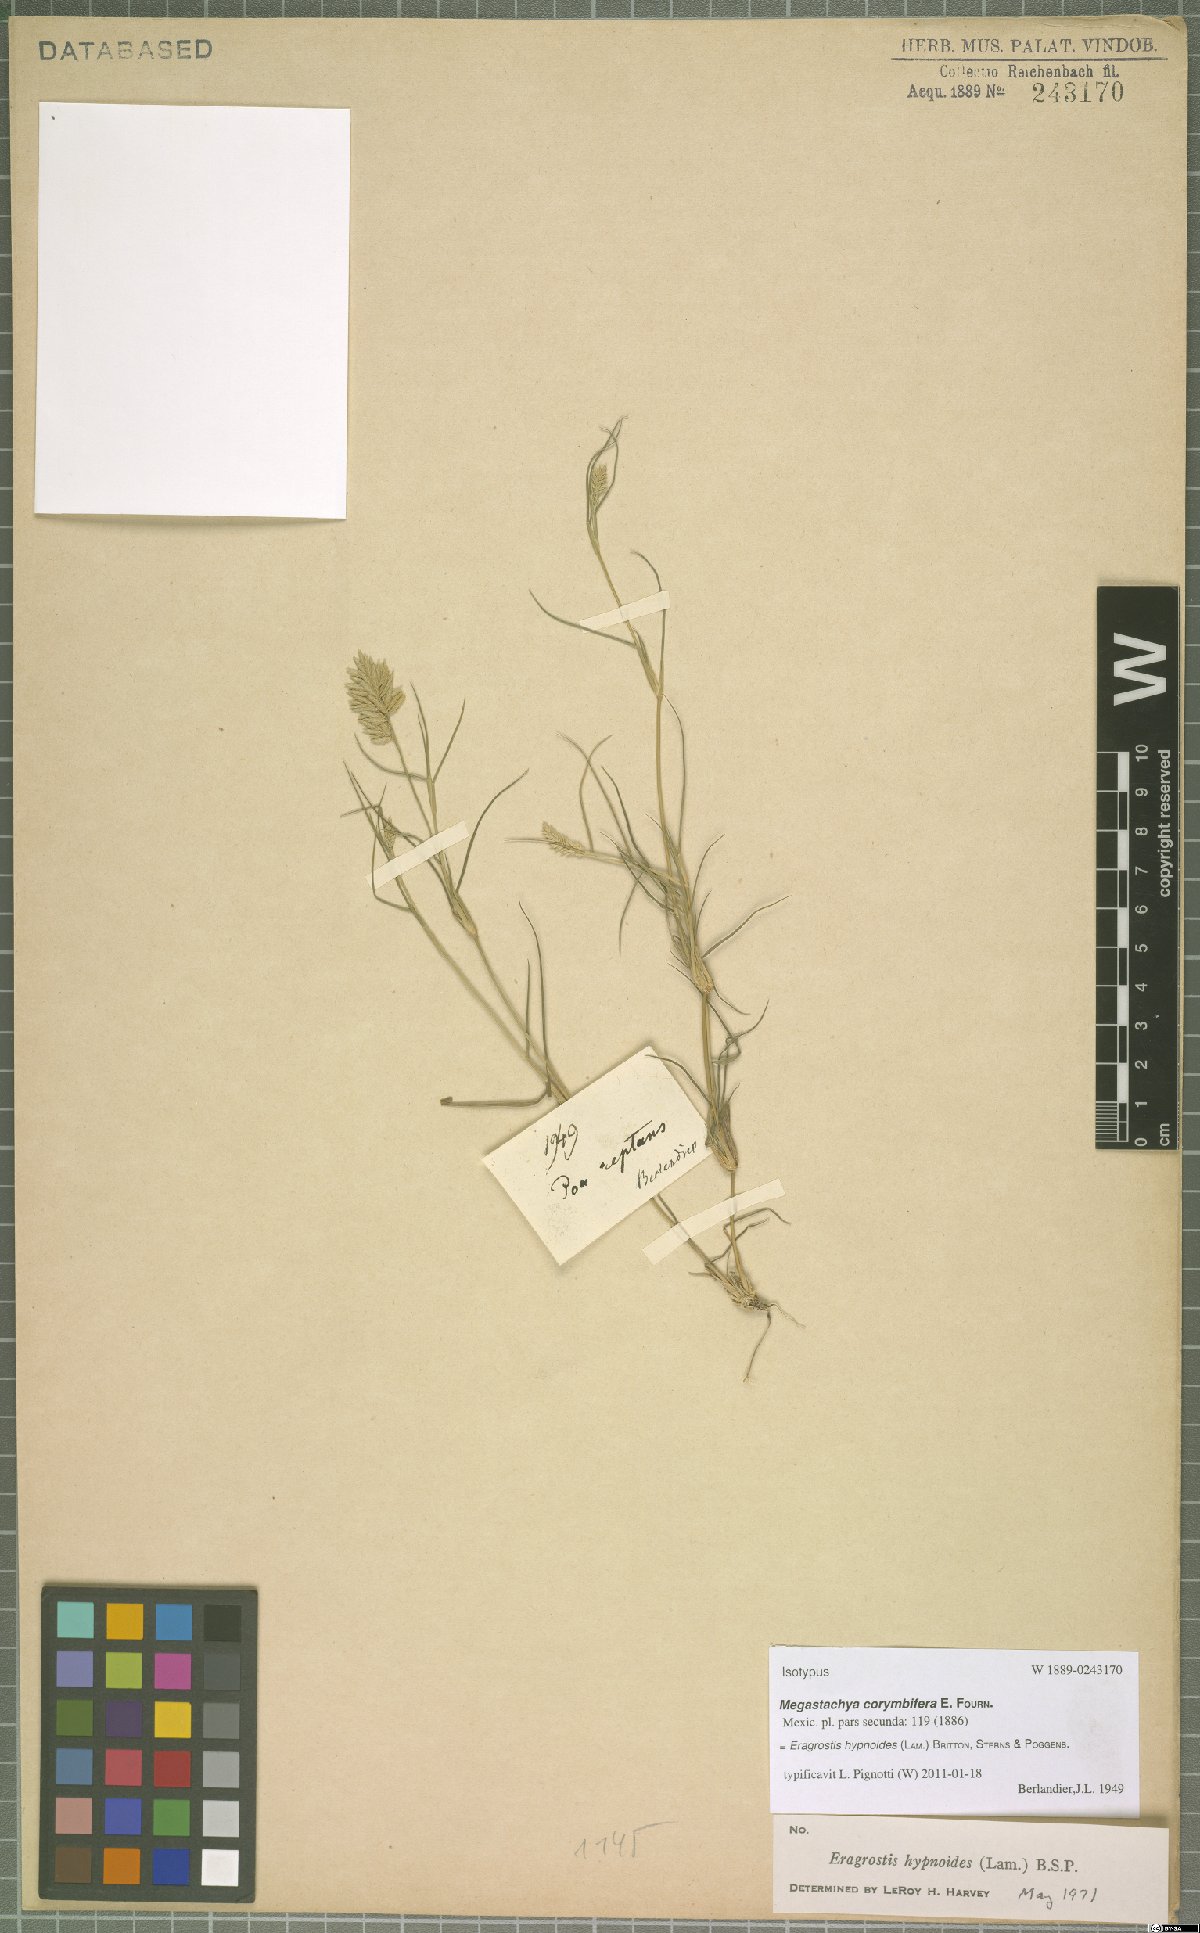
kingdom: Plantae
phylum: Tracheophyta
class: Liliopsida
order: Poales
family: Poaceae
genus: Eragrostis
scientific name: Eragrostis hypnoides
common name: Creeping love grass
